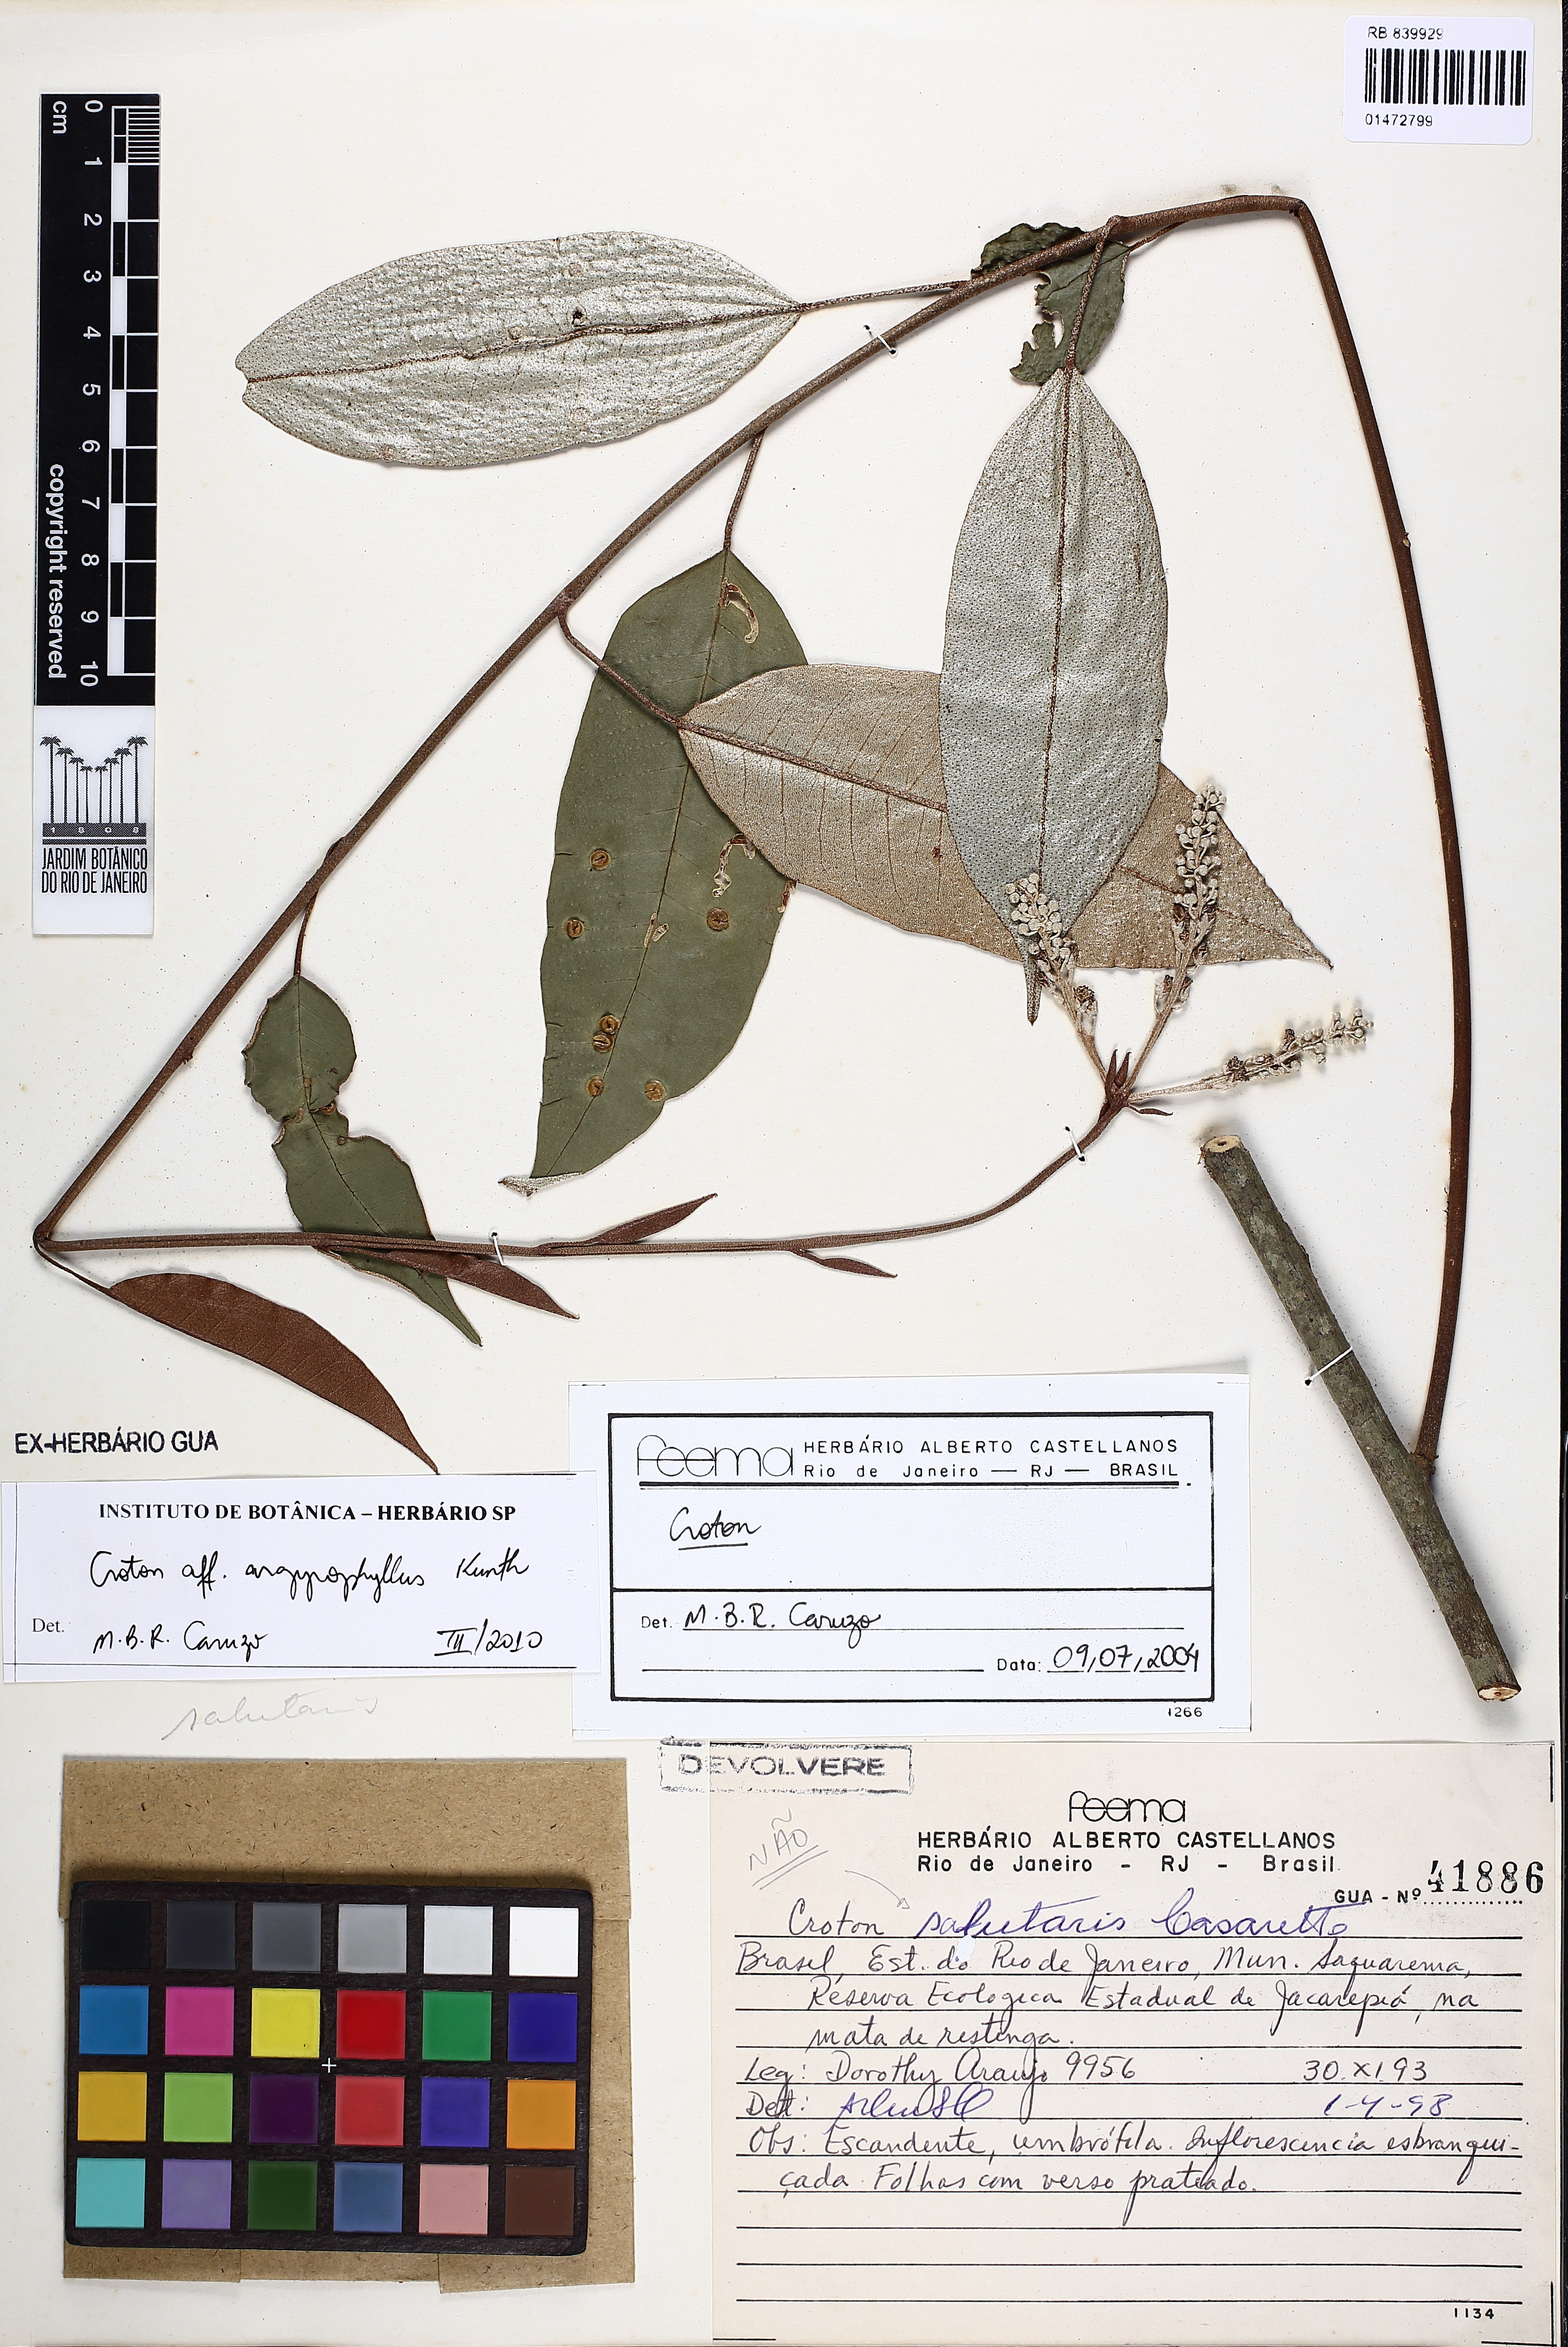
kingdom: Plantae
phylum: Tracheophyta
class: Magnoliopsida
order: Malpighiales
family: Euphorbiaceae
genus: Croton
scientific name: Croton argyrophyllus
